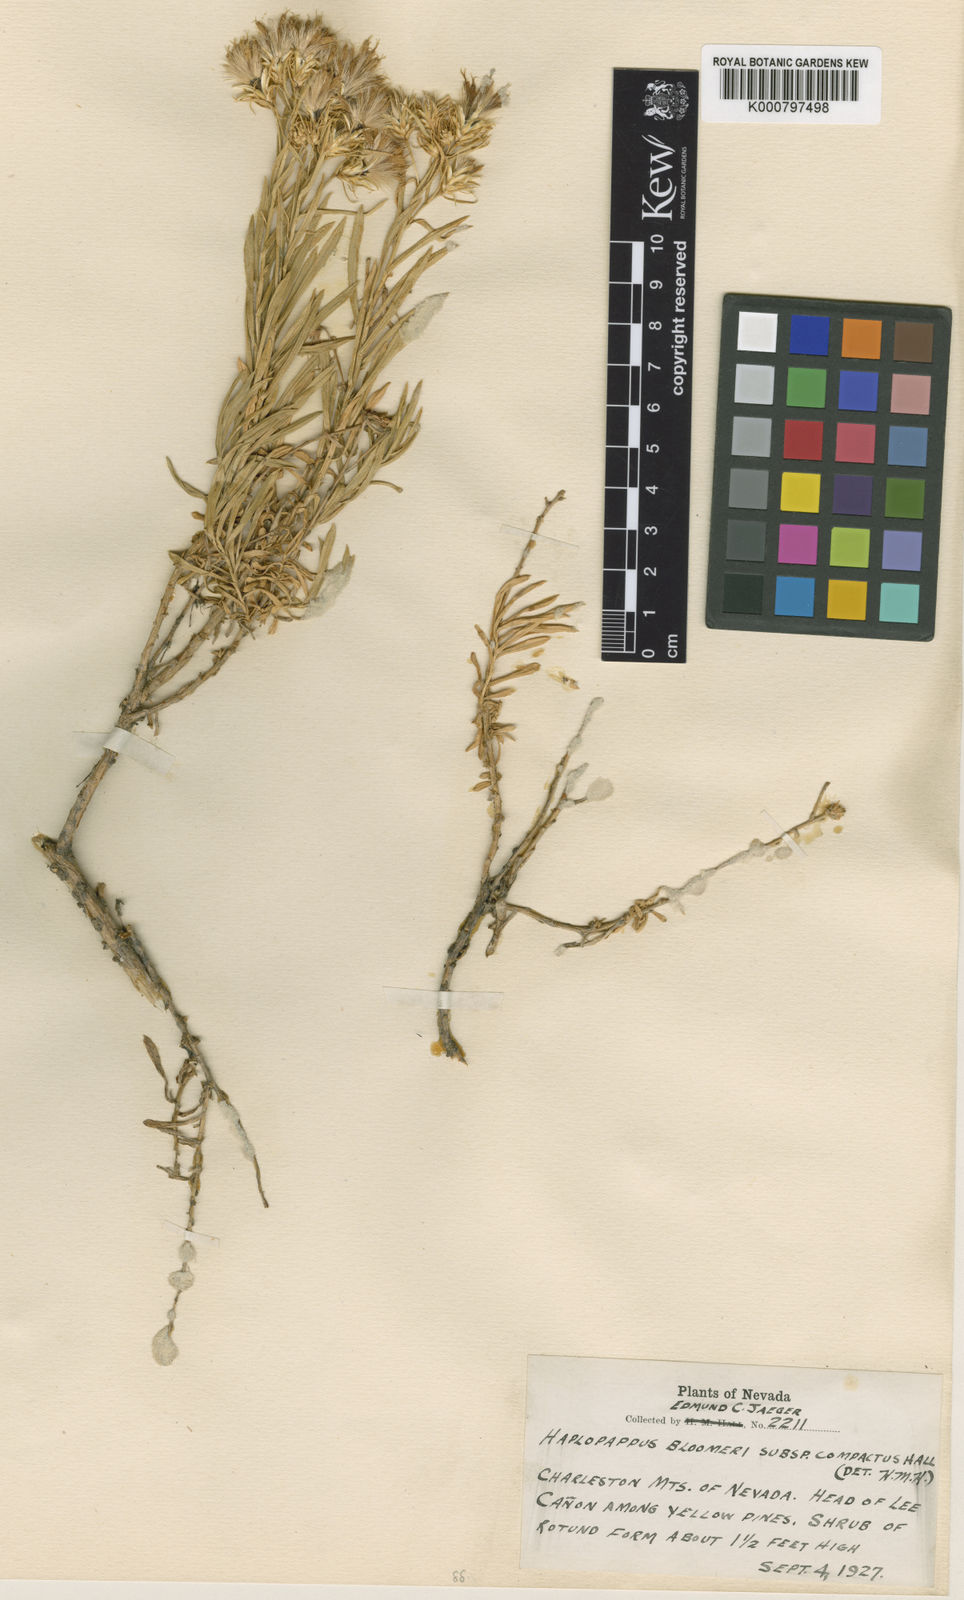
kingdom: Plantae
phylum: Tracheophyta
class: Magnoliopsida
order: Asterales
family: Asteraceae
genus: Ericameria
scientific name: Ericameria compacta
